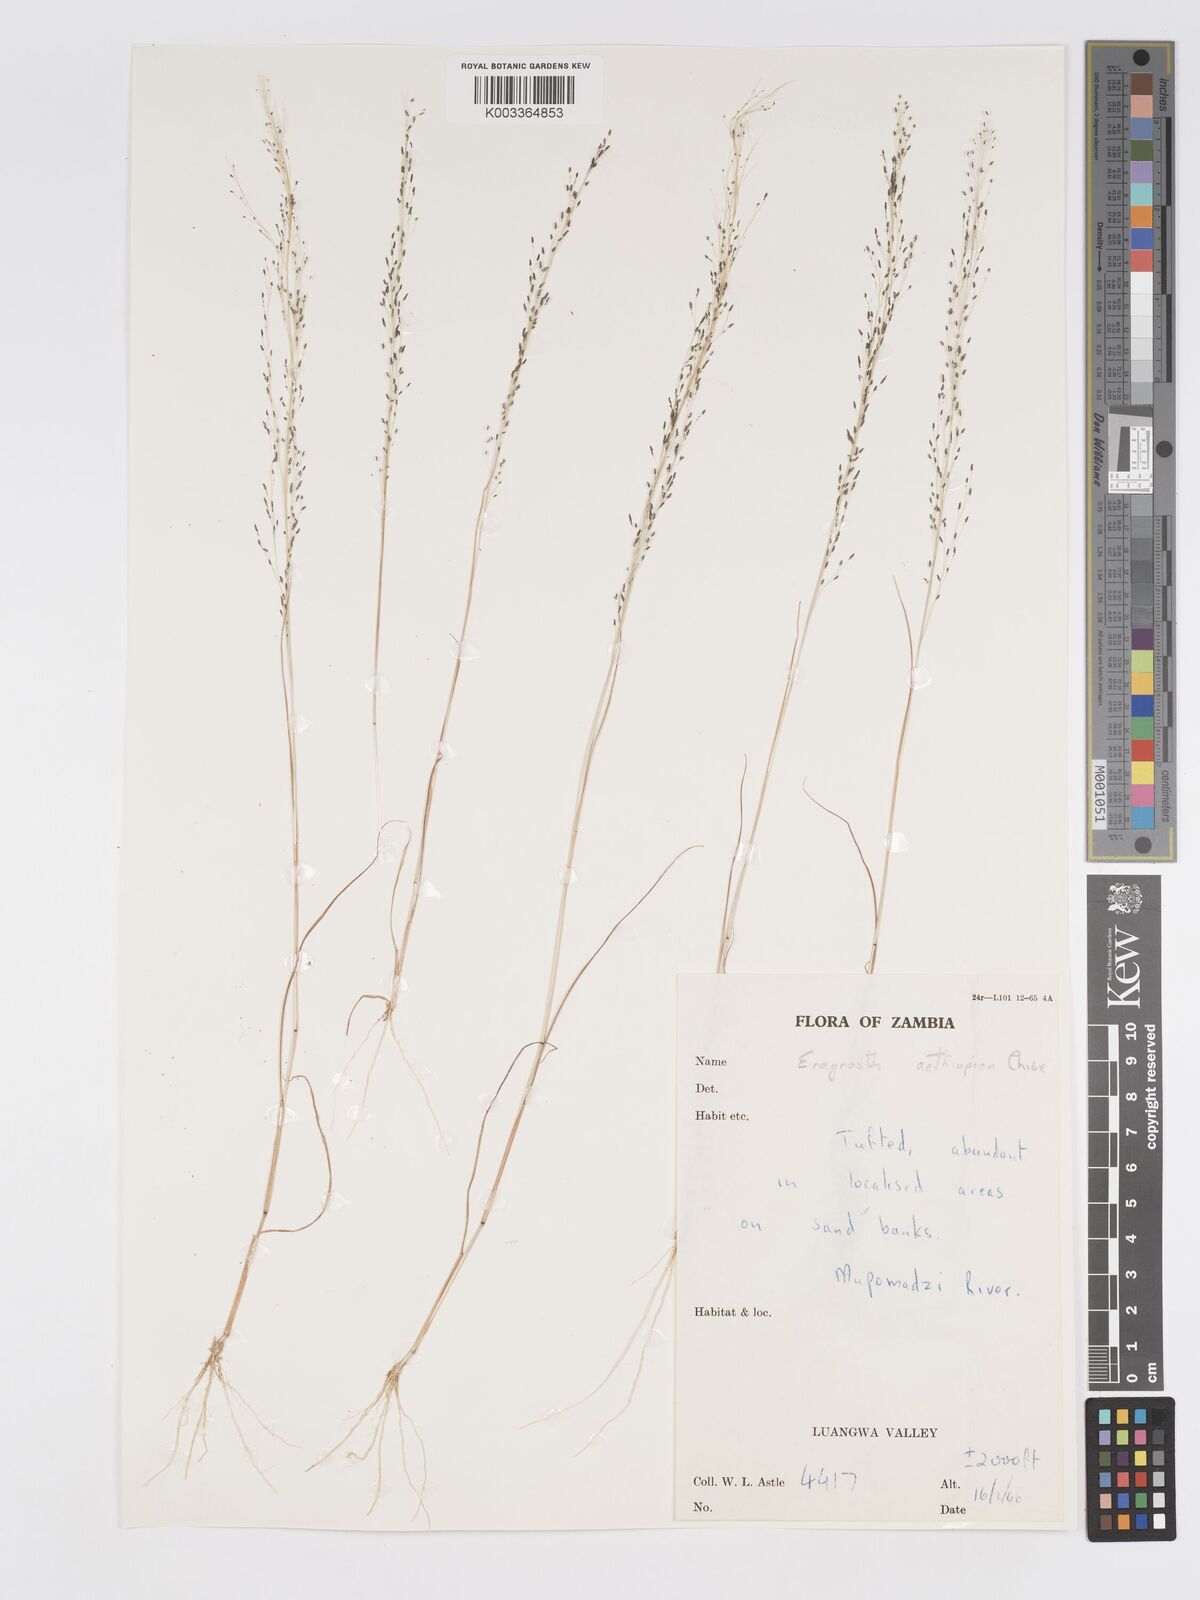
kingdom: Plantae
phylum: Tracheophyta
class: Liliopsida
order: Poales
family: Poaceae
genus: Eragrostis
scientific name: Eragrostis aethiopica
